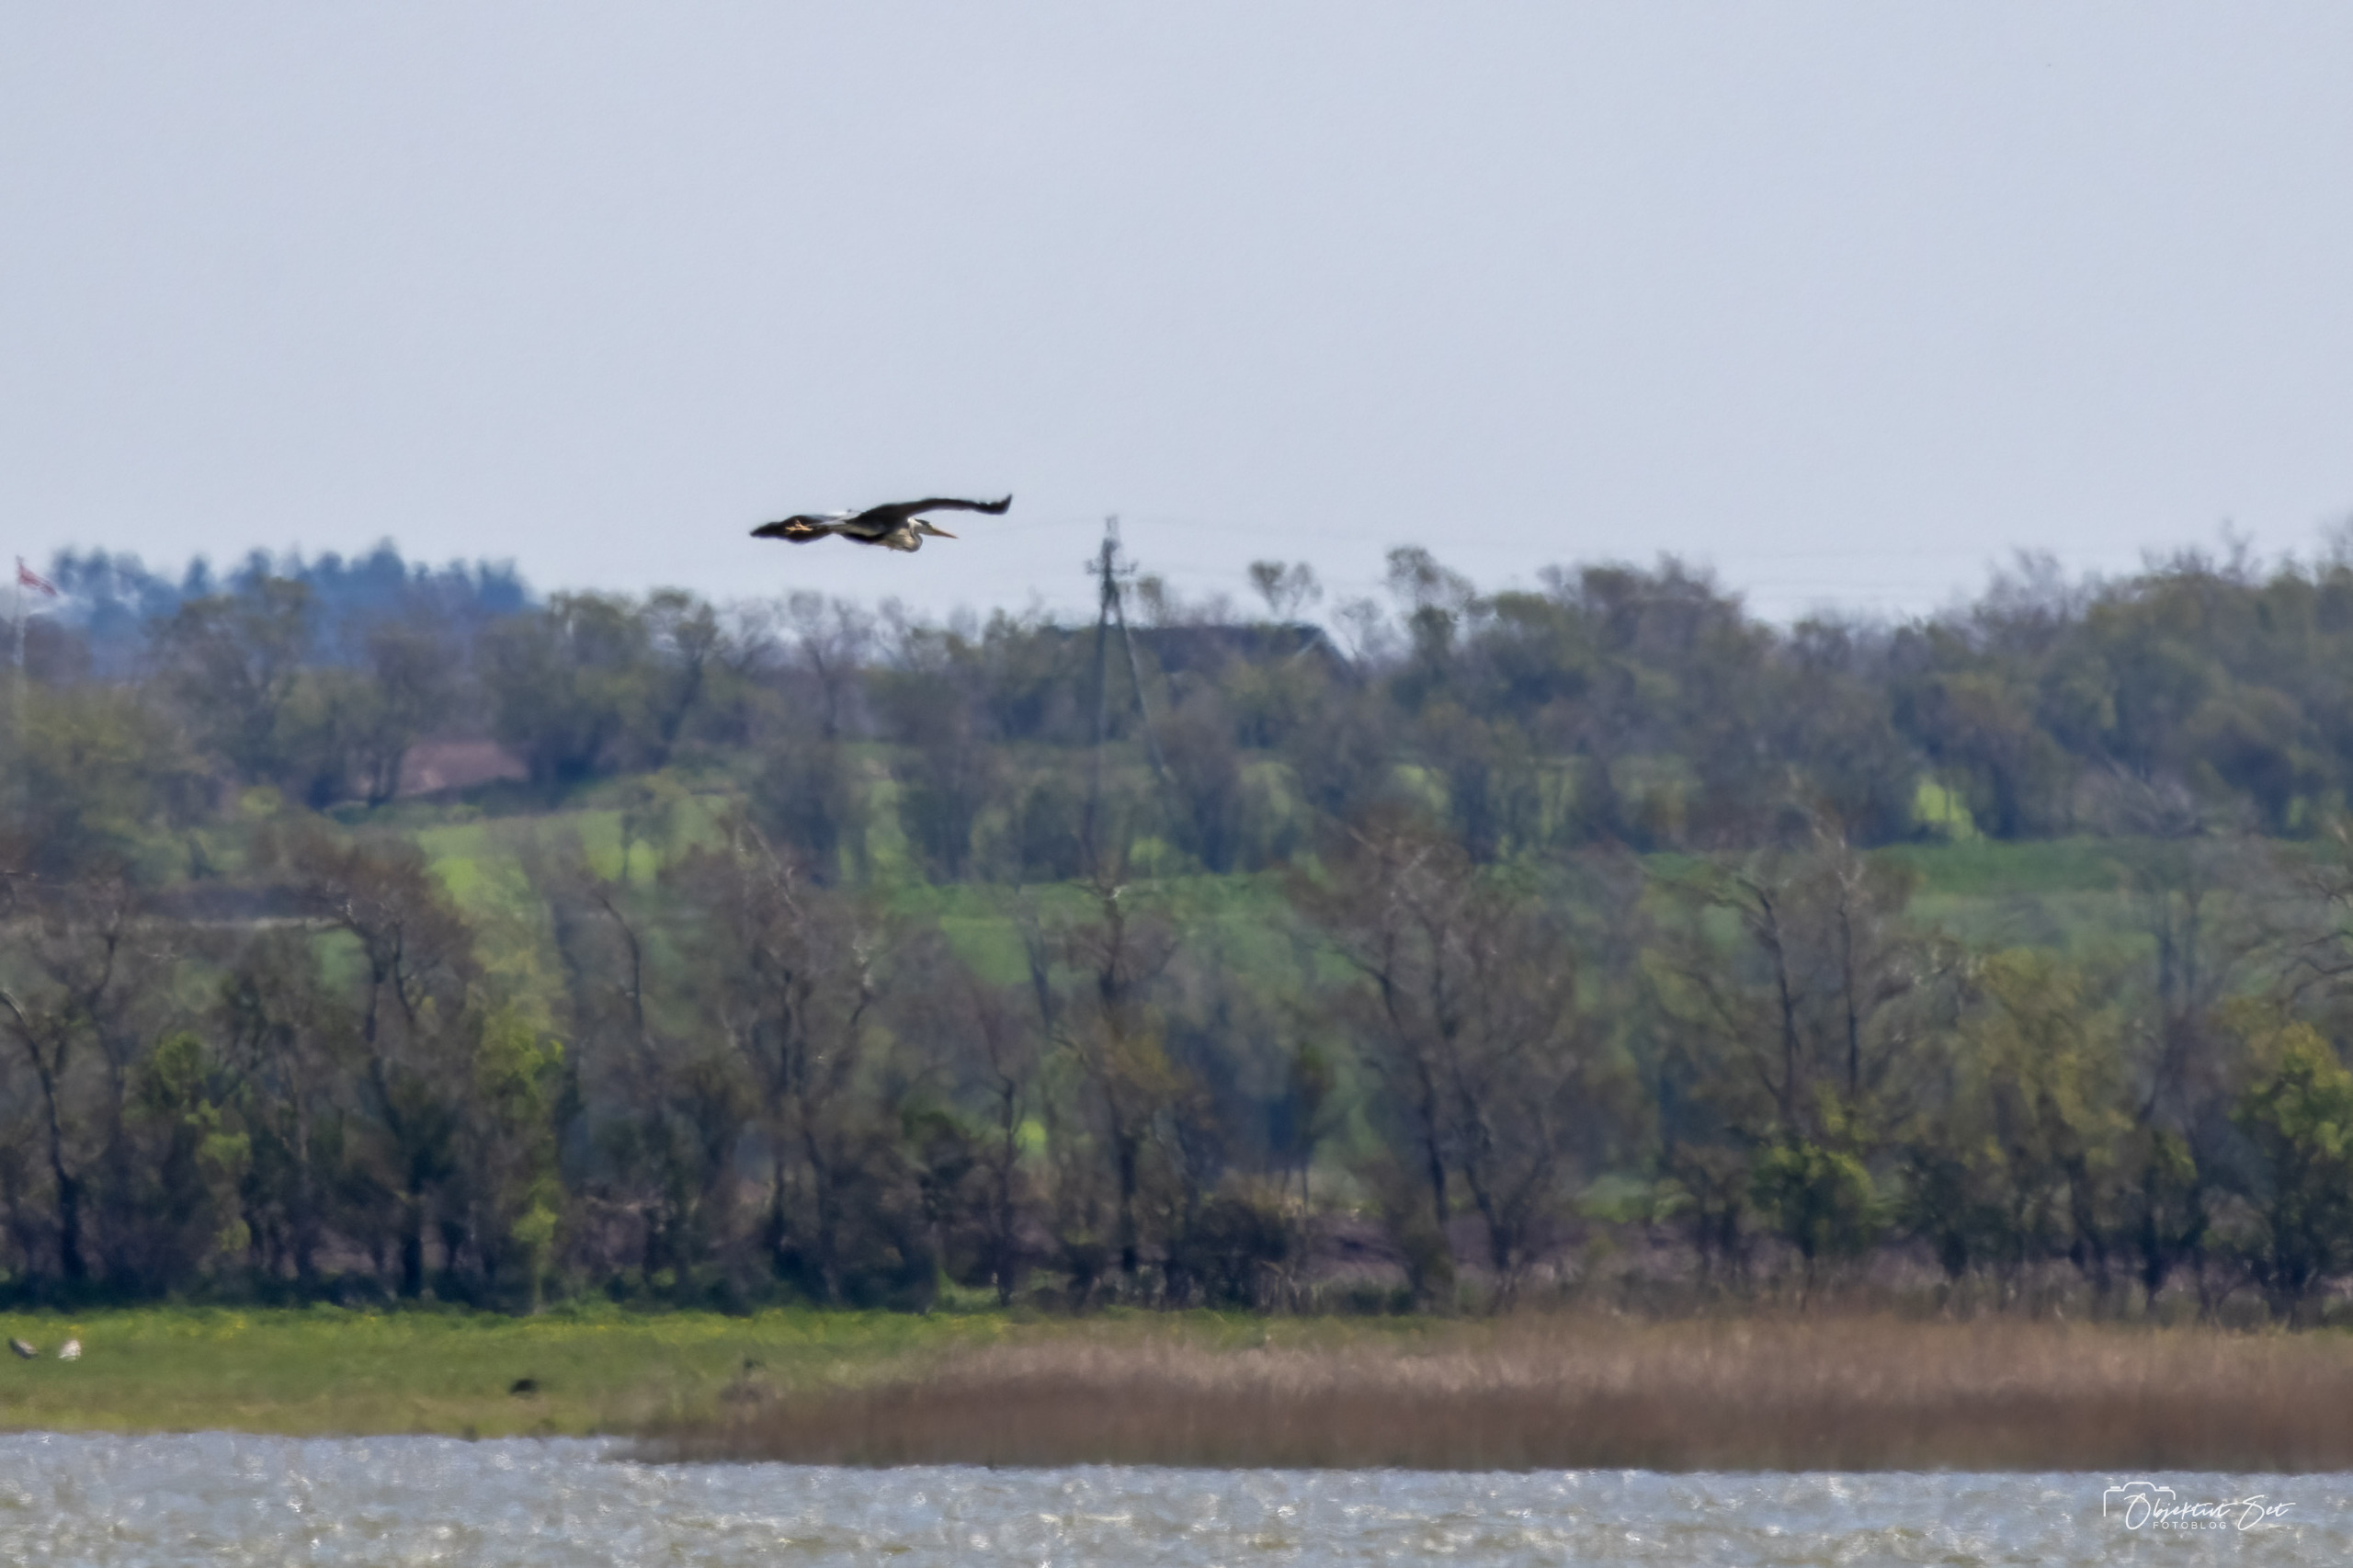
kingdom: Animalia
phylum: Chordata
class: Aves
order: Pelecaniformes
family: Ardeidae
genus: Ardea
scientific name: Ardea cinerea
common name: Fiskehejre
